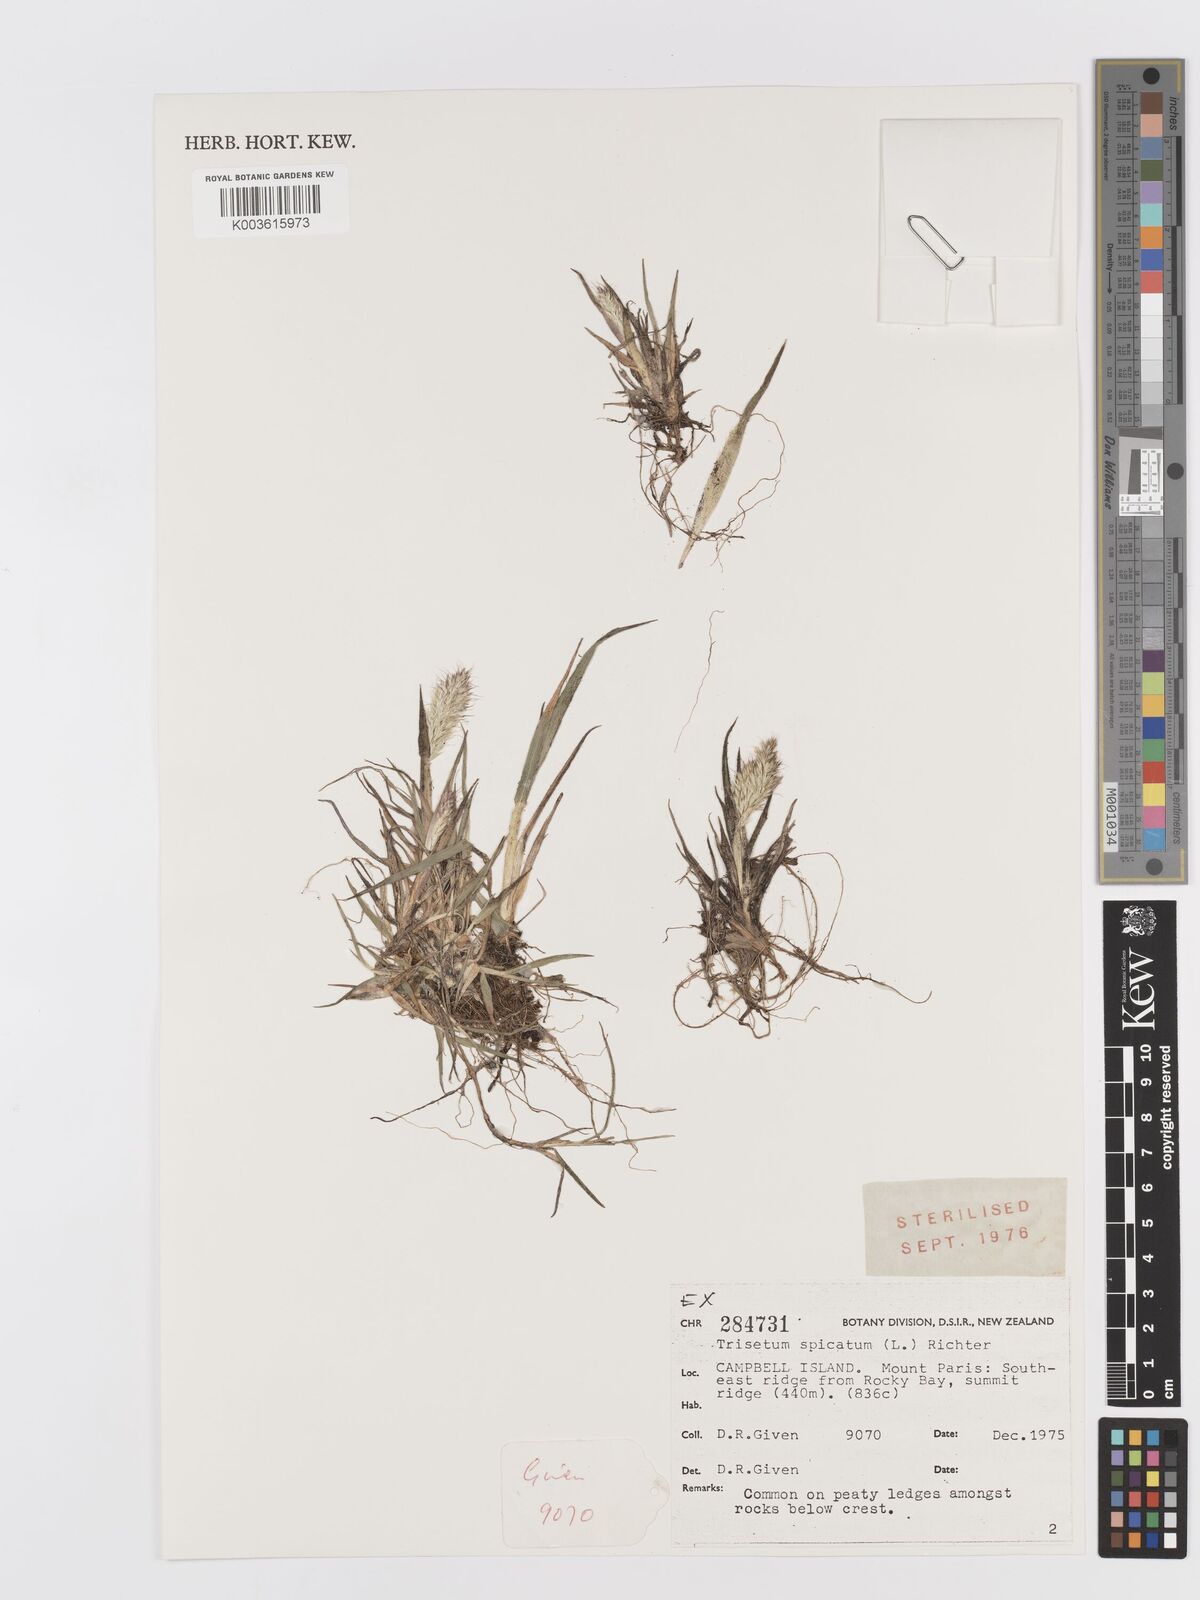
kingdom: Plantae
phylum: Tracheophyta
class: Liliopsida
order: Poales
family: Poaceae
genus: Koeleria
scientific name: Koeleria spicata
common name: Mountain trisetum
